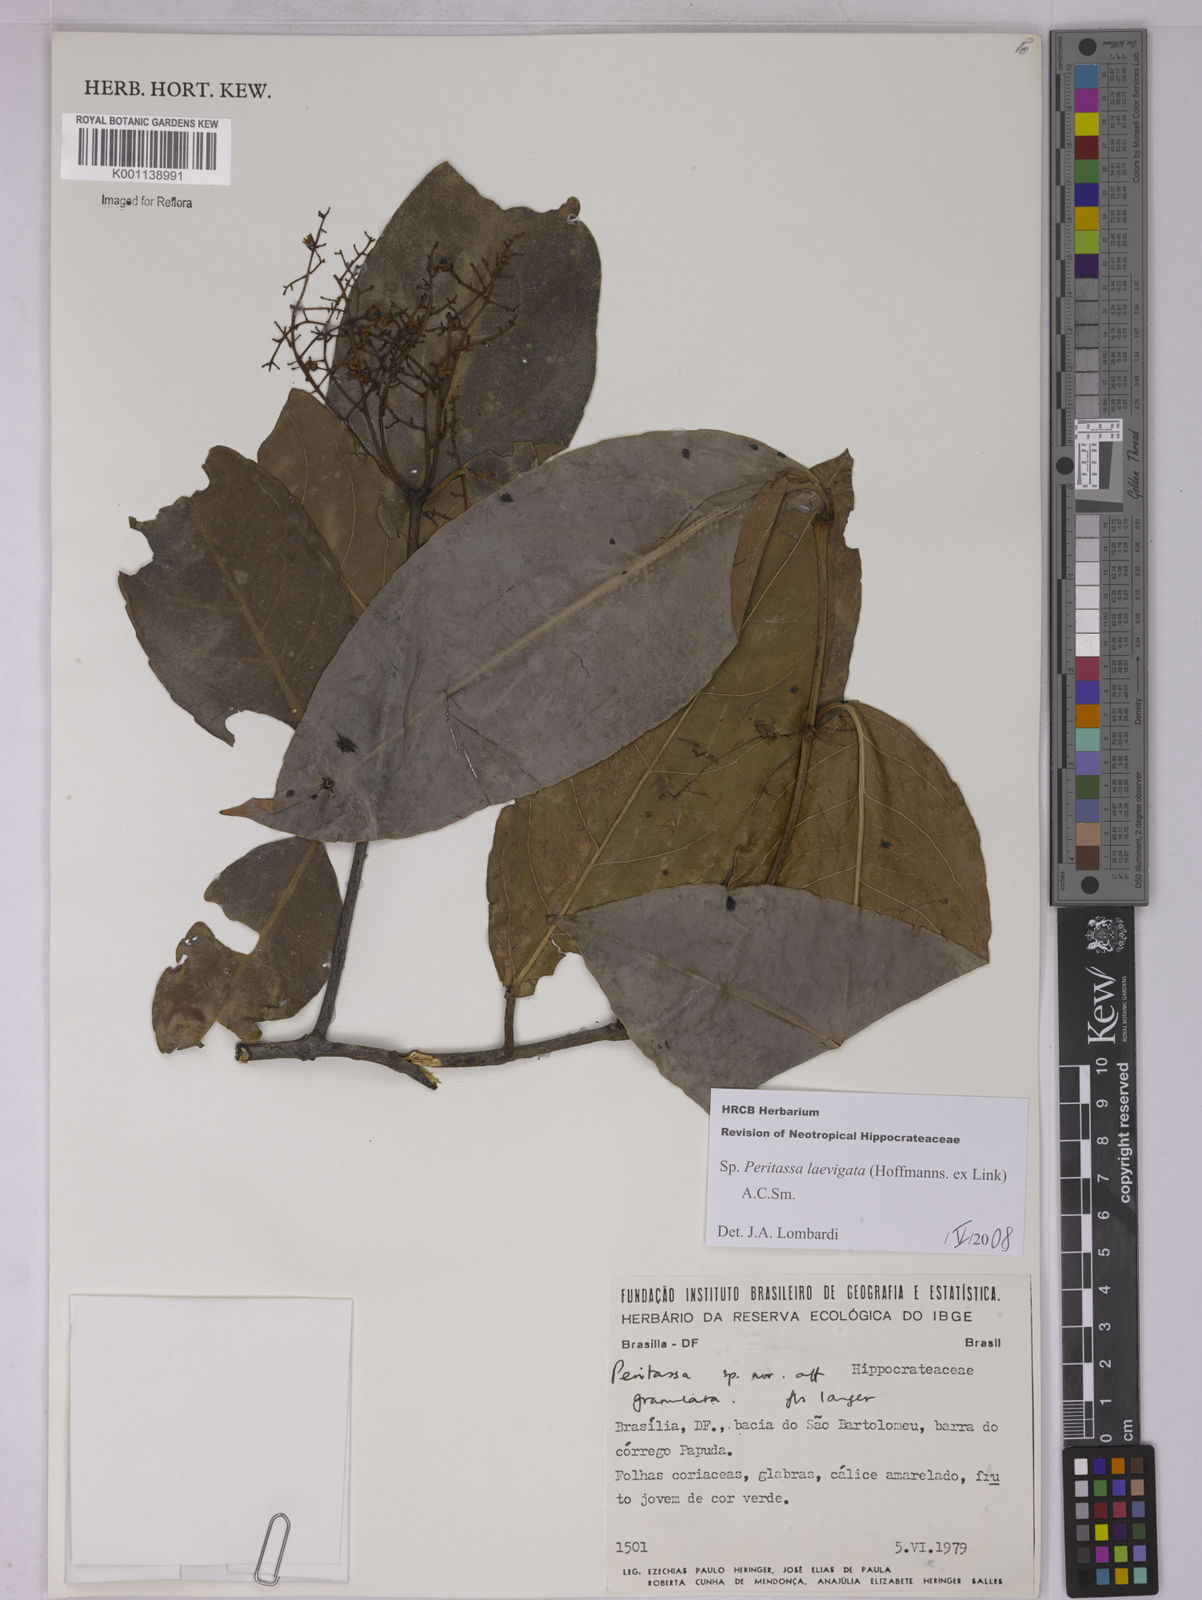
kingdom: Plantae
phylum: Tracheophyta
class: Magnoliopsida
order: Celastrales
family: Celastraceae
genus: Peritassa
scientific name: Peritassa laevigata
